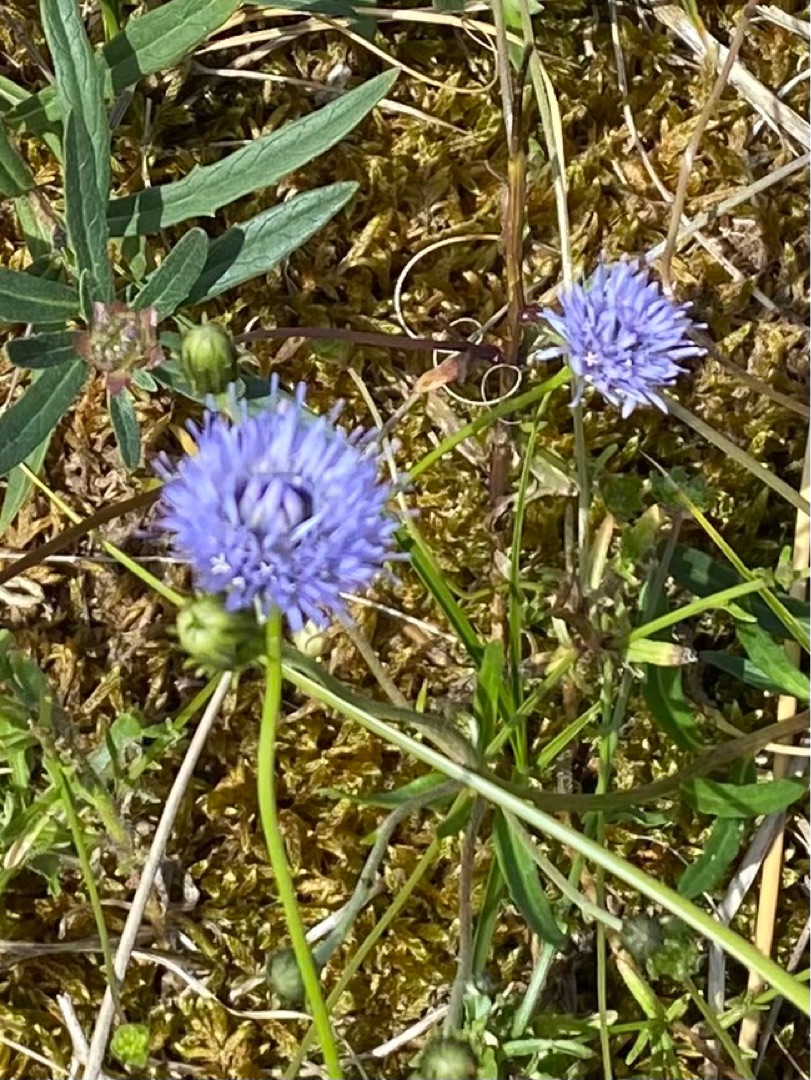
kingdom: Plantae
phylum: Tracheophyta
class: Magnoliopsida
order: Asterales
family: Campanulaceae
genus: Jasione
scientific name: Jasione montana
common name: Blåmunke
